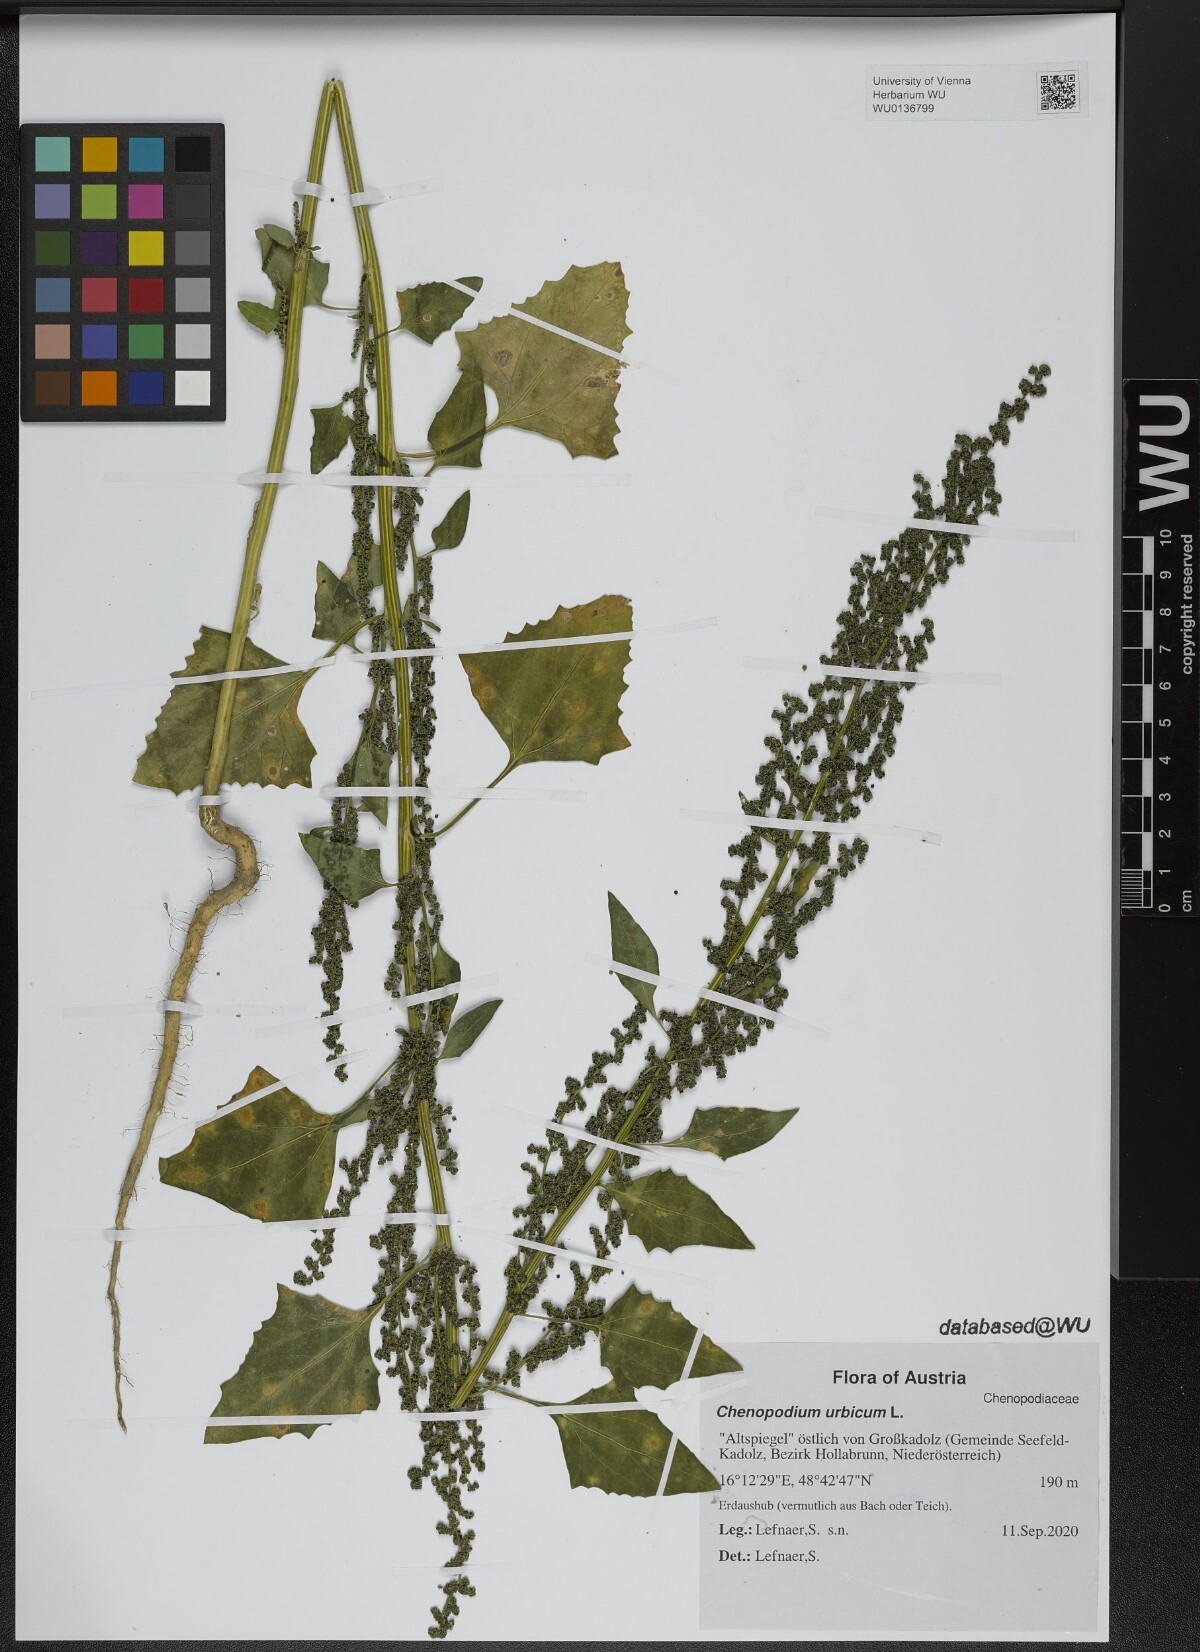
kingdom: Plantae
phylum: Tracheophyta
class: Magnoliopsida
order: Caryophyllales
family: Amaranthaceae
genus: Oxybasis
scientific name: Oxybasis urbica
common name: City goosefoot
